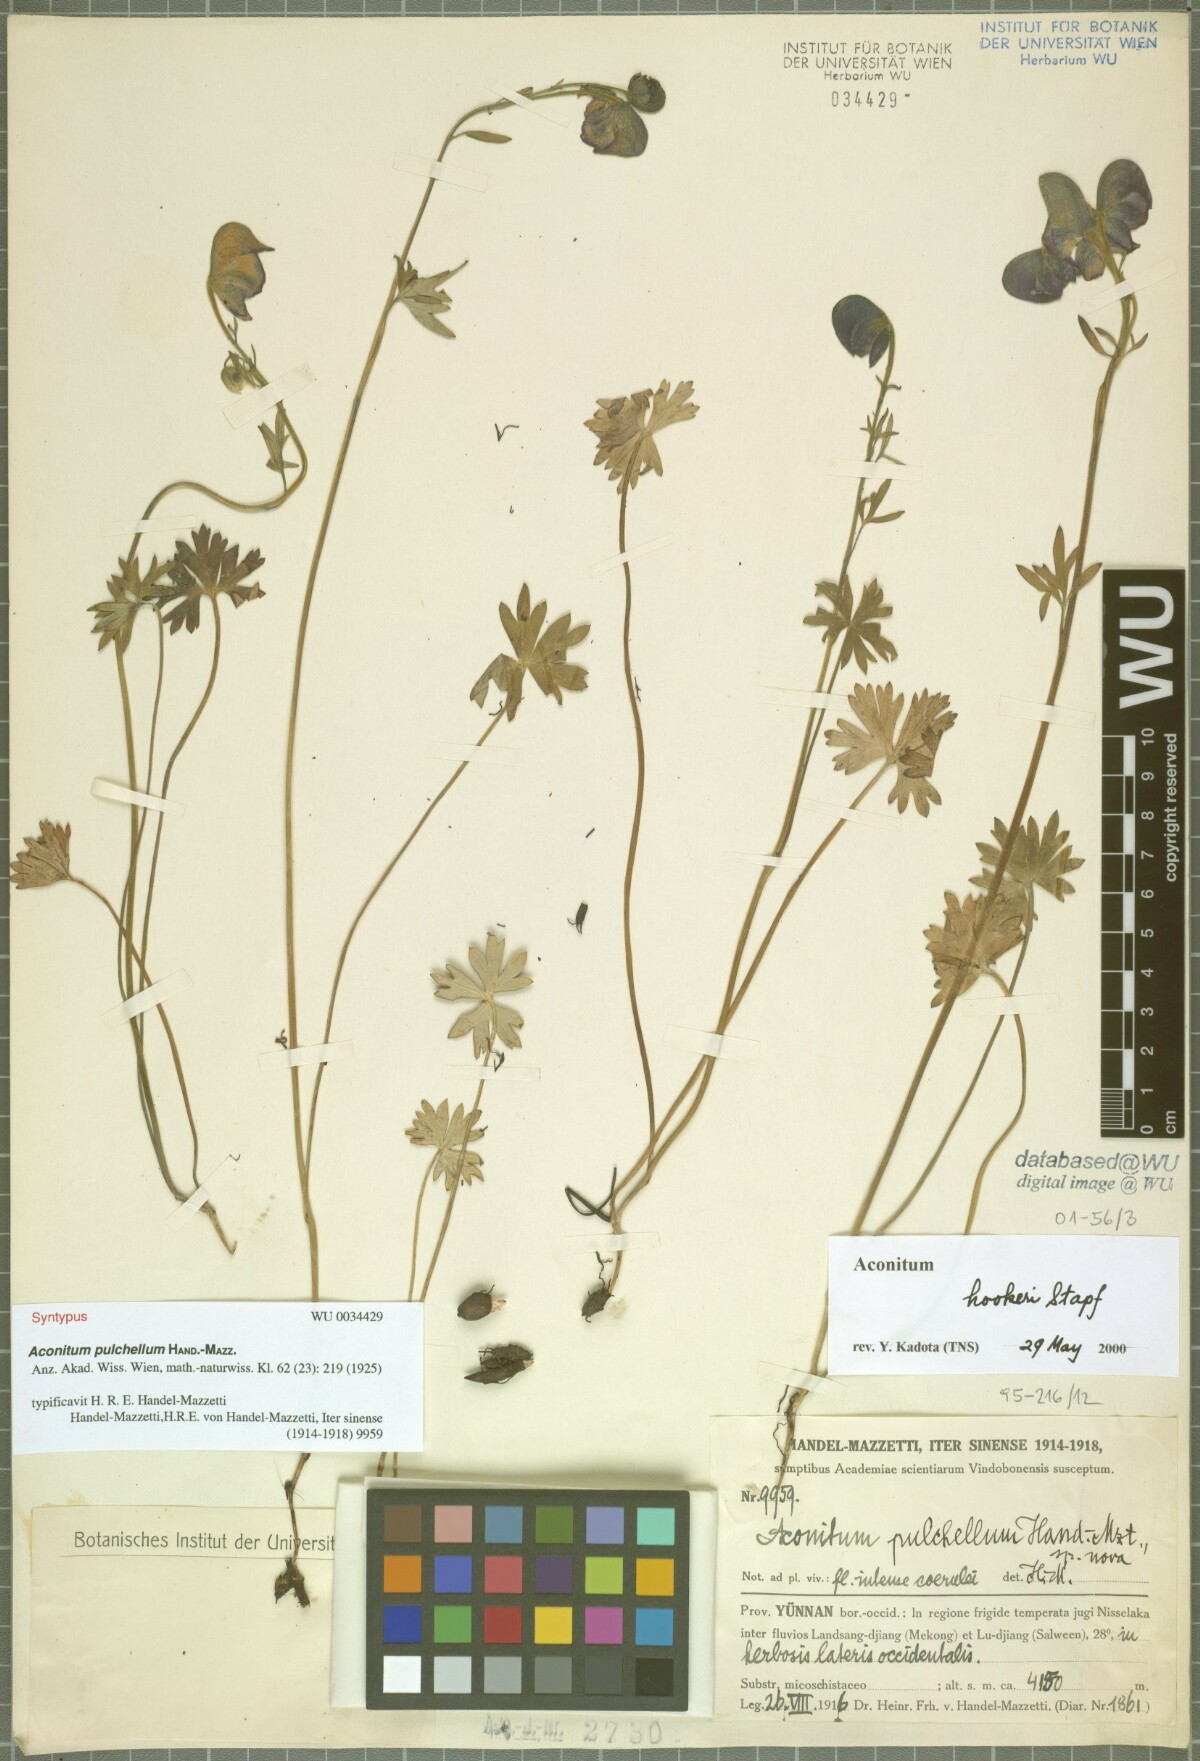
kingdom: Plantae
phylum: Tracheophyta
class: Magnoliopsida
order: Ranunculales
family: Ranunculaceae
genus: Aconitum
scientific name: Aconitum pulchellum
